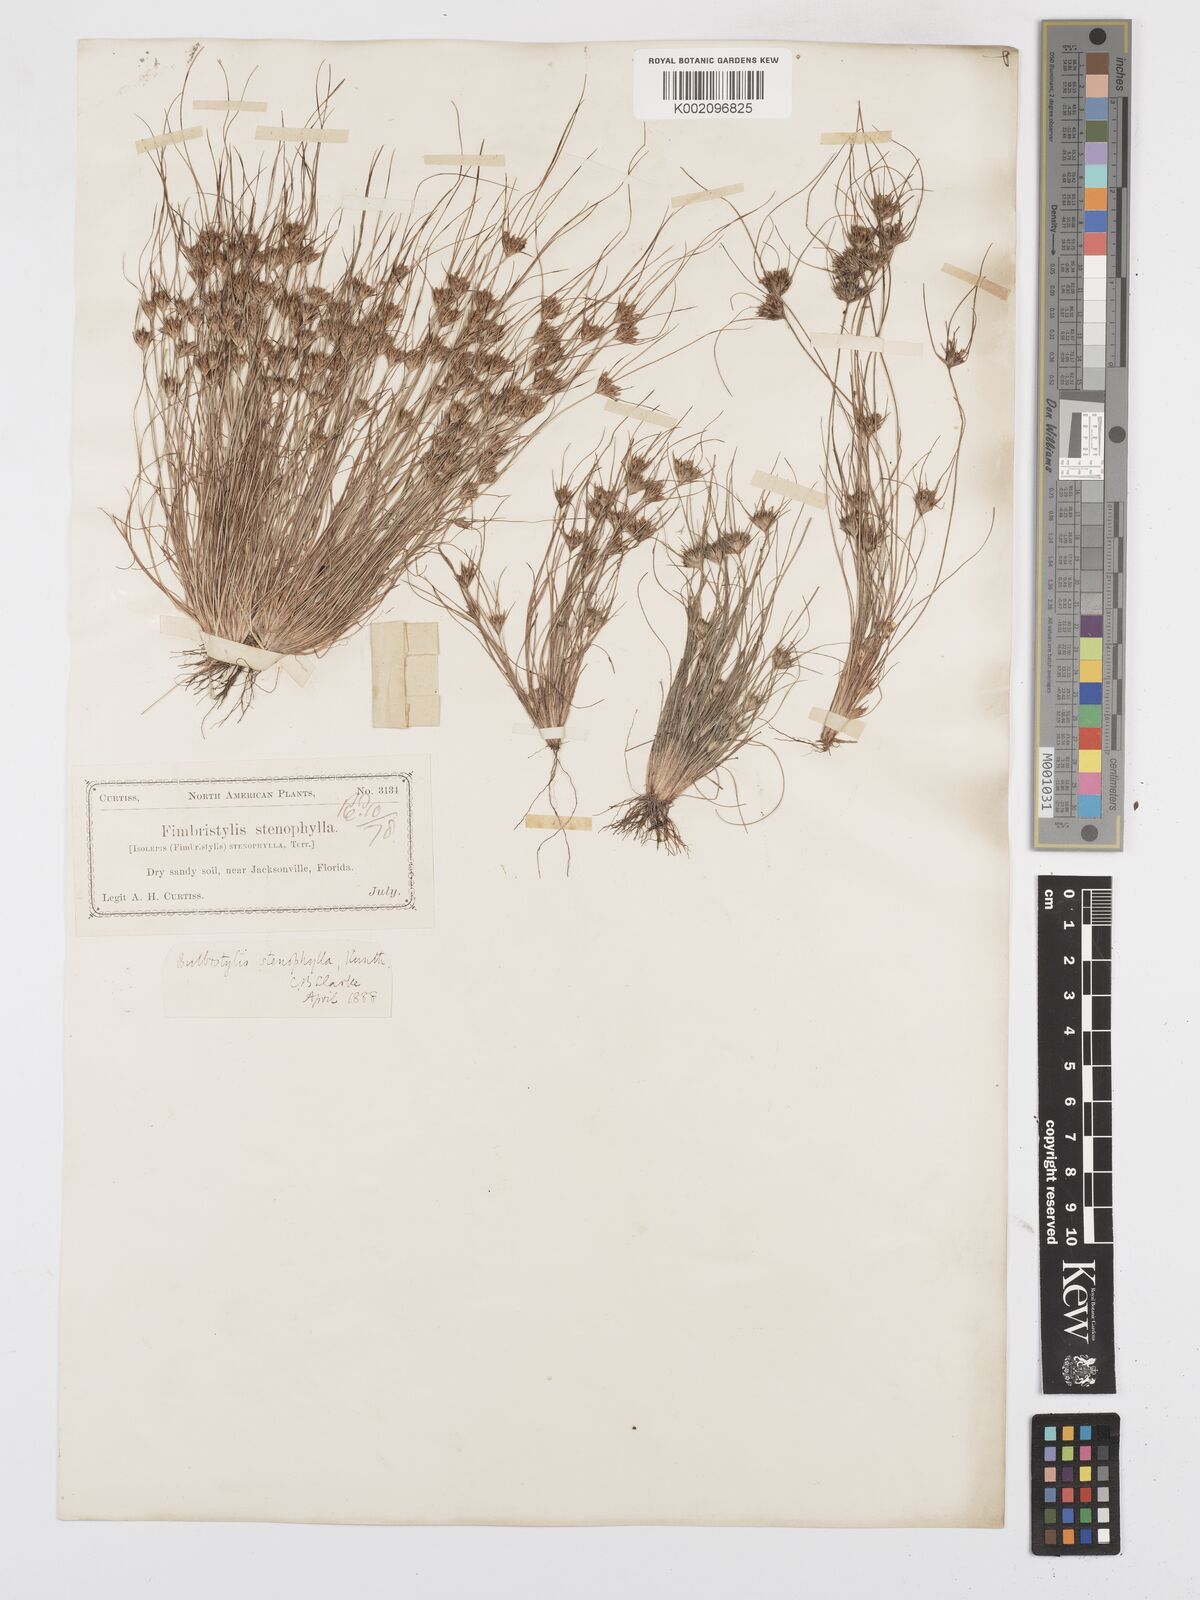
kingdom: Plantae
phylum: Tracheophyta
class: Liliopsida
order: Poales
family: Cyperaceae
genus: Bulbostylis
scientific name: Bulbostylis rarissima
